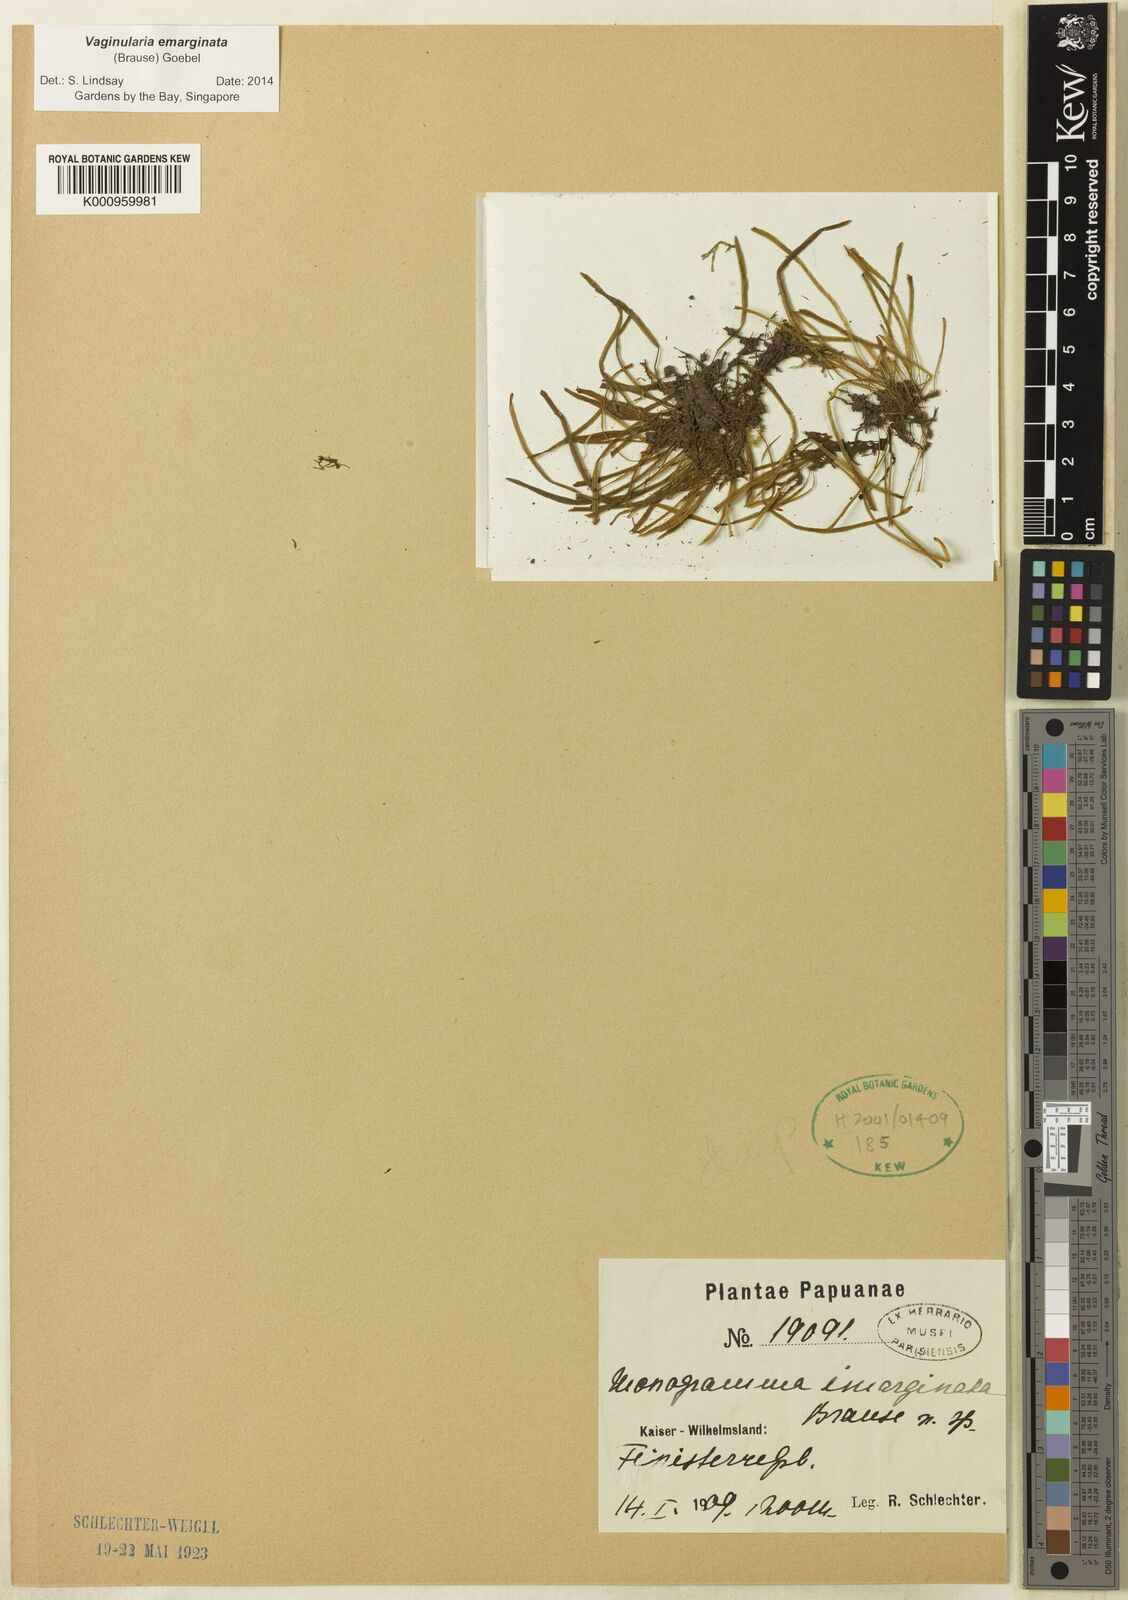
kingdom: Plantae
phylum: Tracheophyta
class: Polypodiopsida
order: Polypodiales
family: Pteridaceae
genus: Vaginularia
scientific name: Vaginularia emarginata
